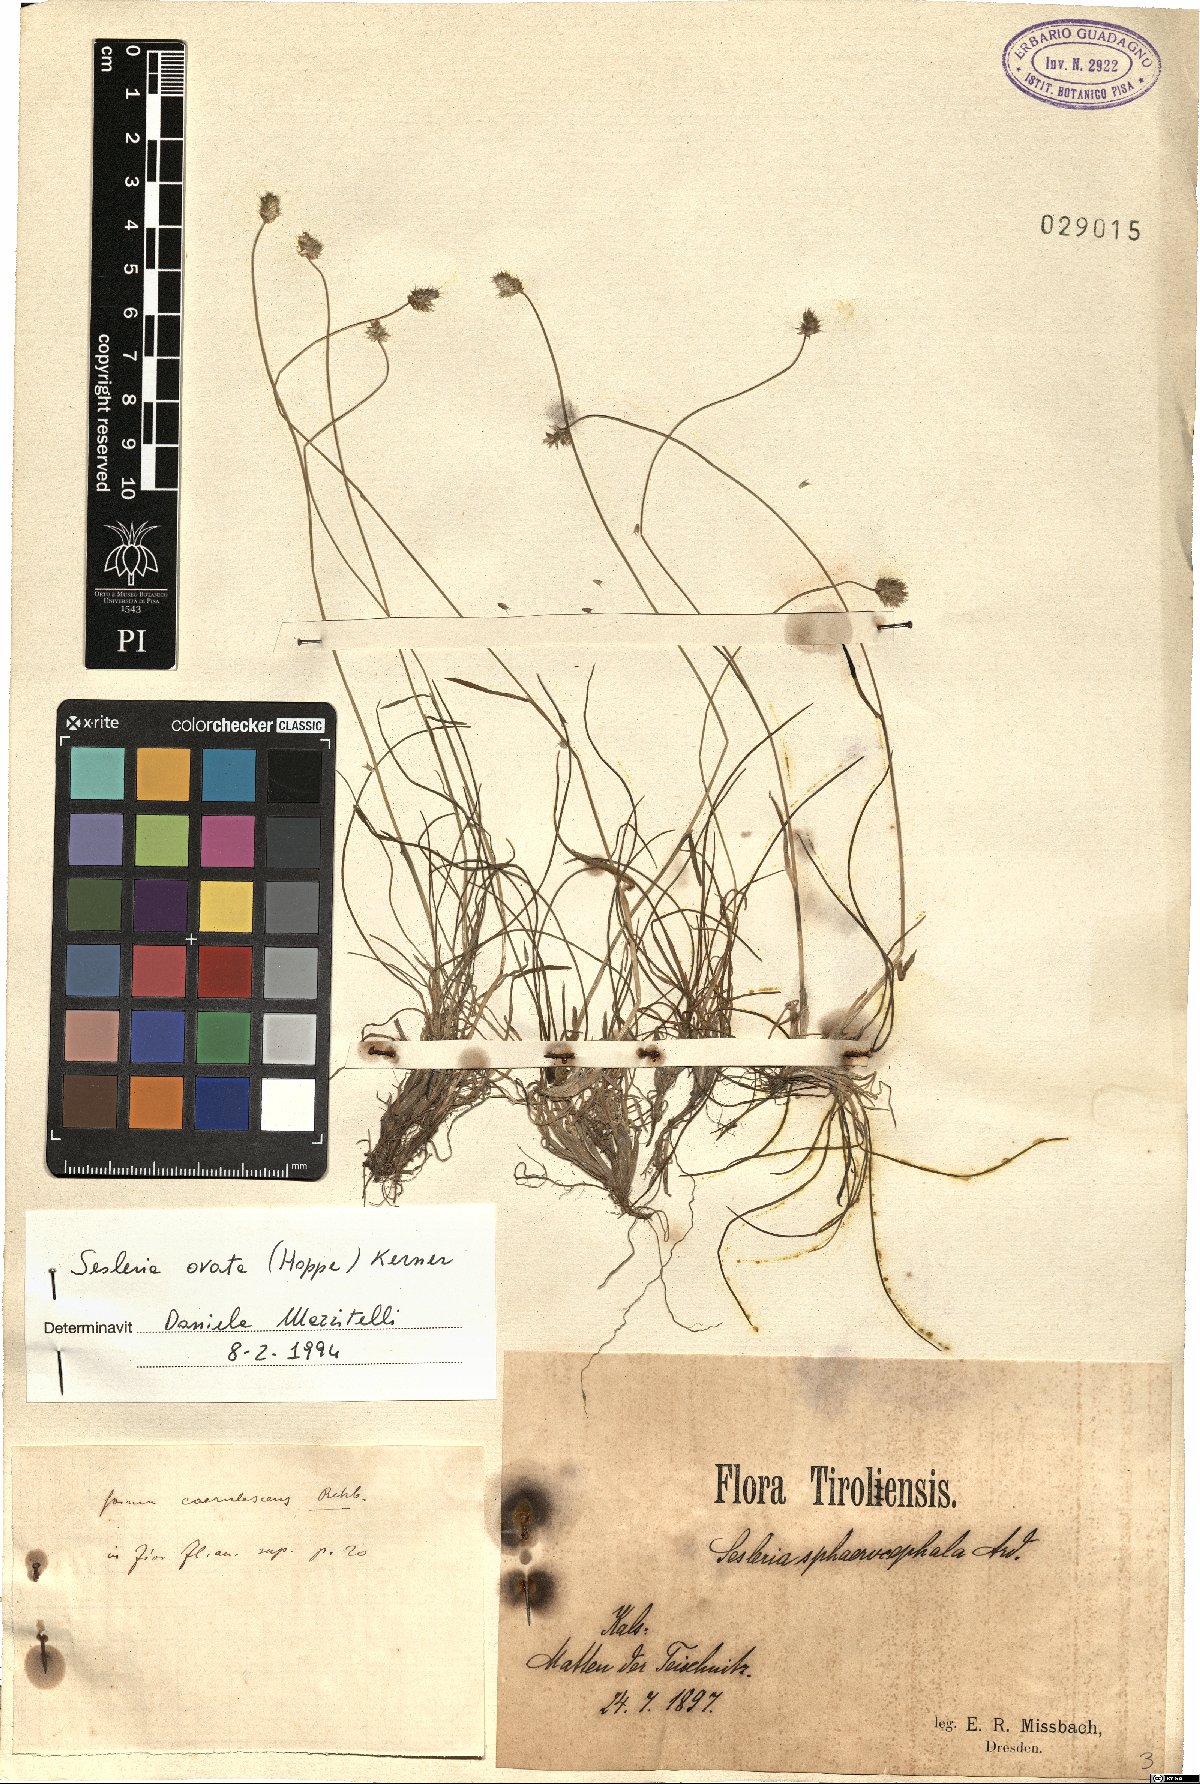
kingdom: Plantae
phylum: Tracheophyta
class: Liliopsida
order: Poales
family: Poaceae
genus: Psilathera
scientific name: Psilathera ovata
